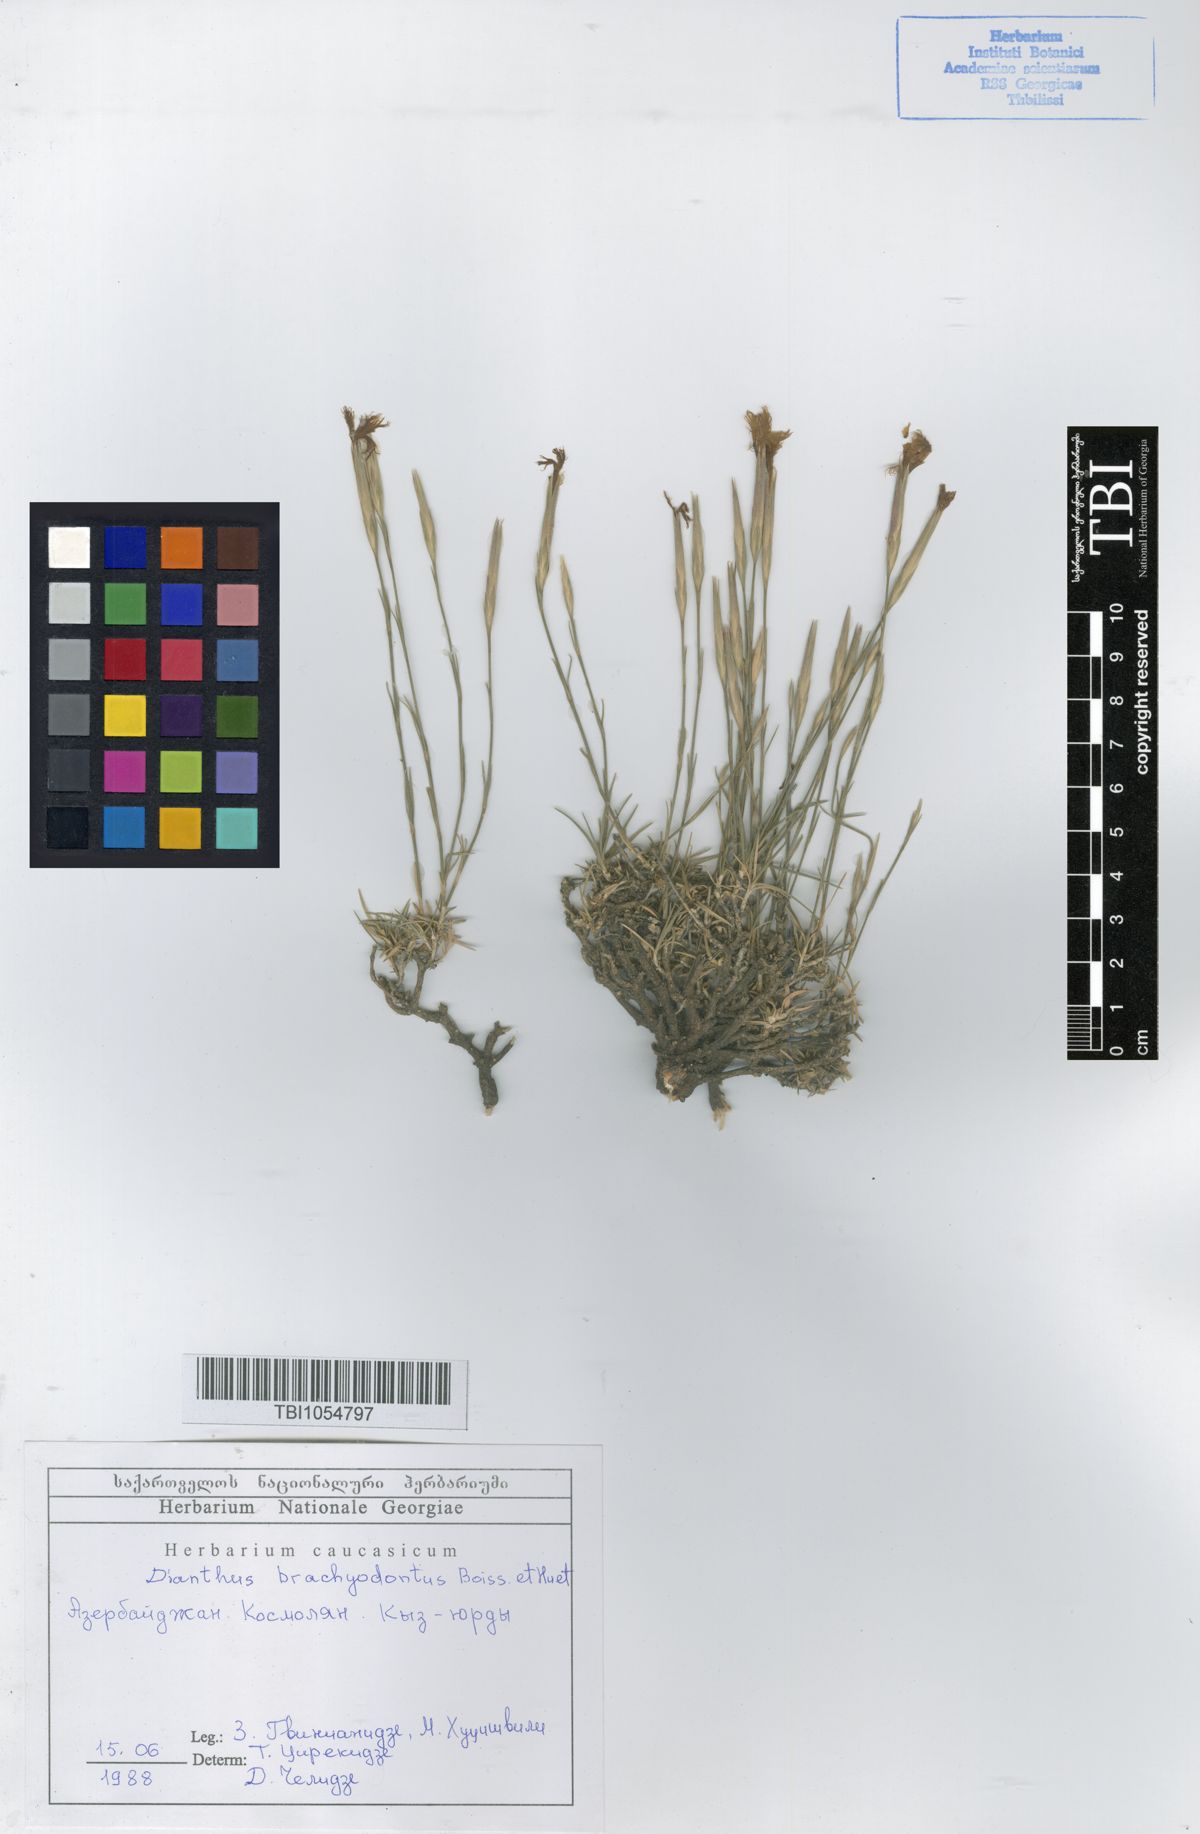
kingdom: Plantae
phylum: Tracheophyta
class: Magnoliopsida
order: Caryophyllales
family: Caryophyllaceae
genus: Dianthus
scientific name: Dianthus
